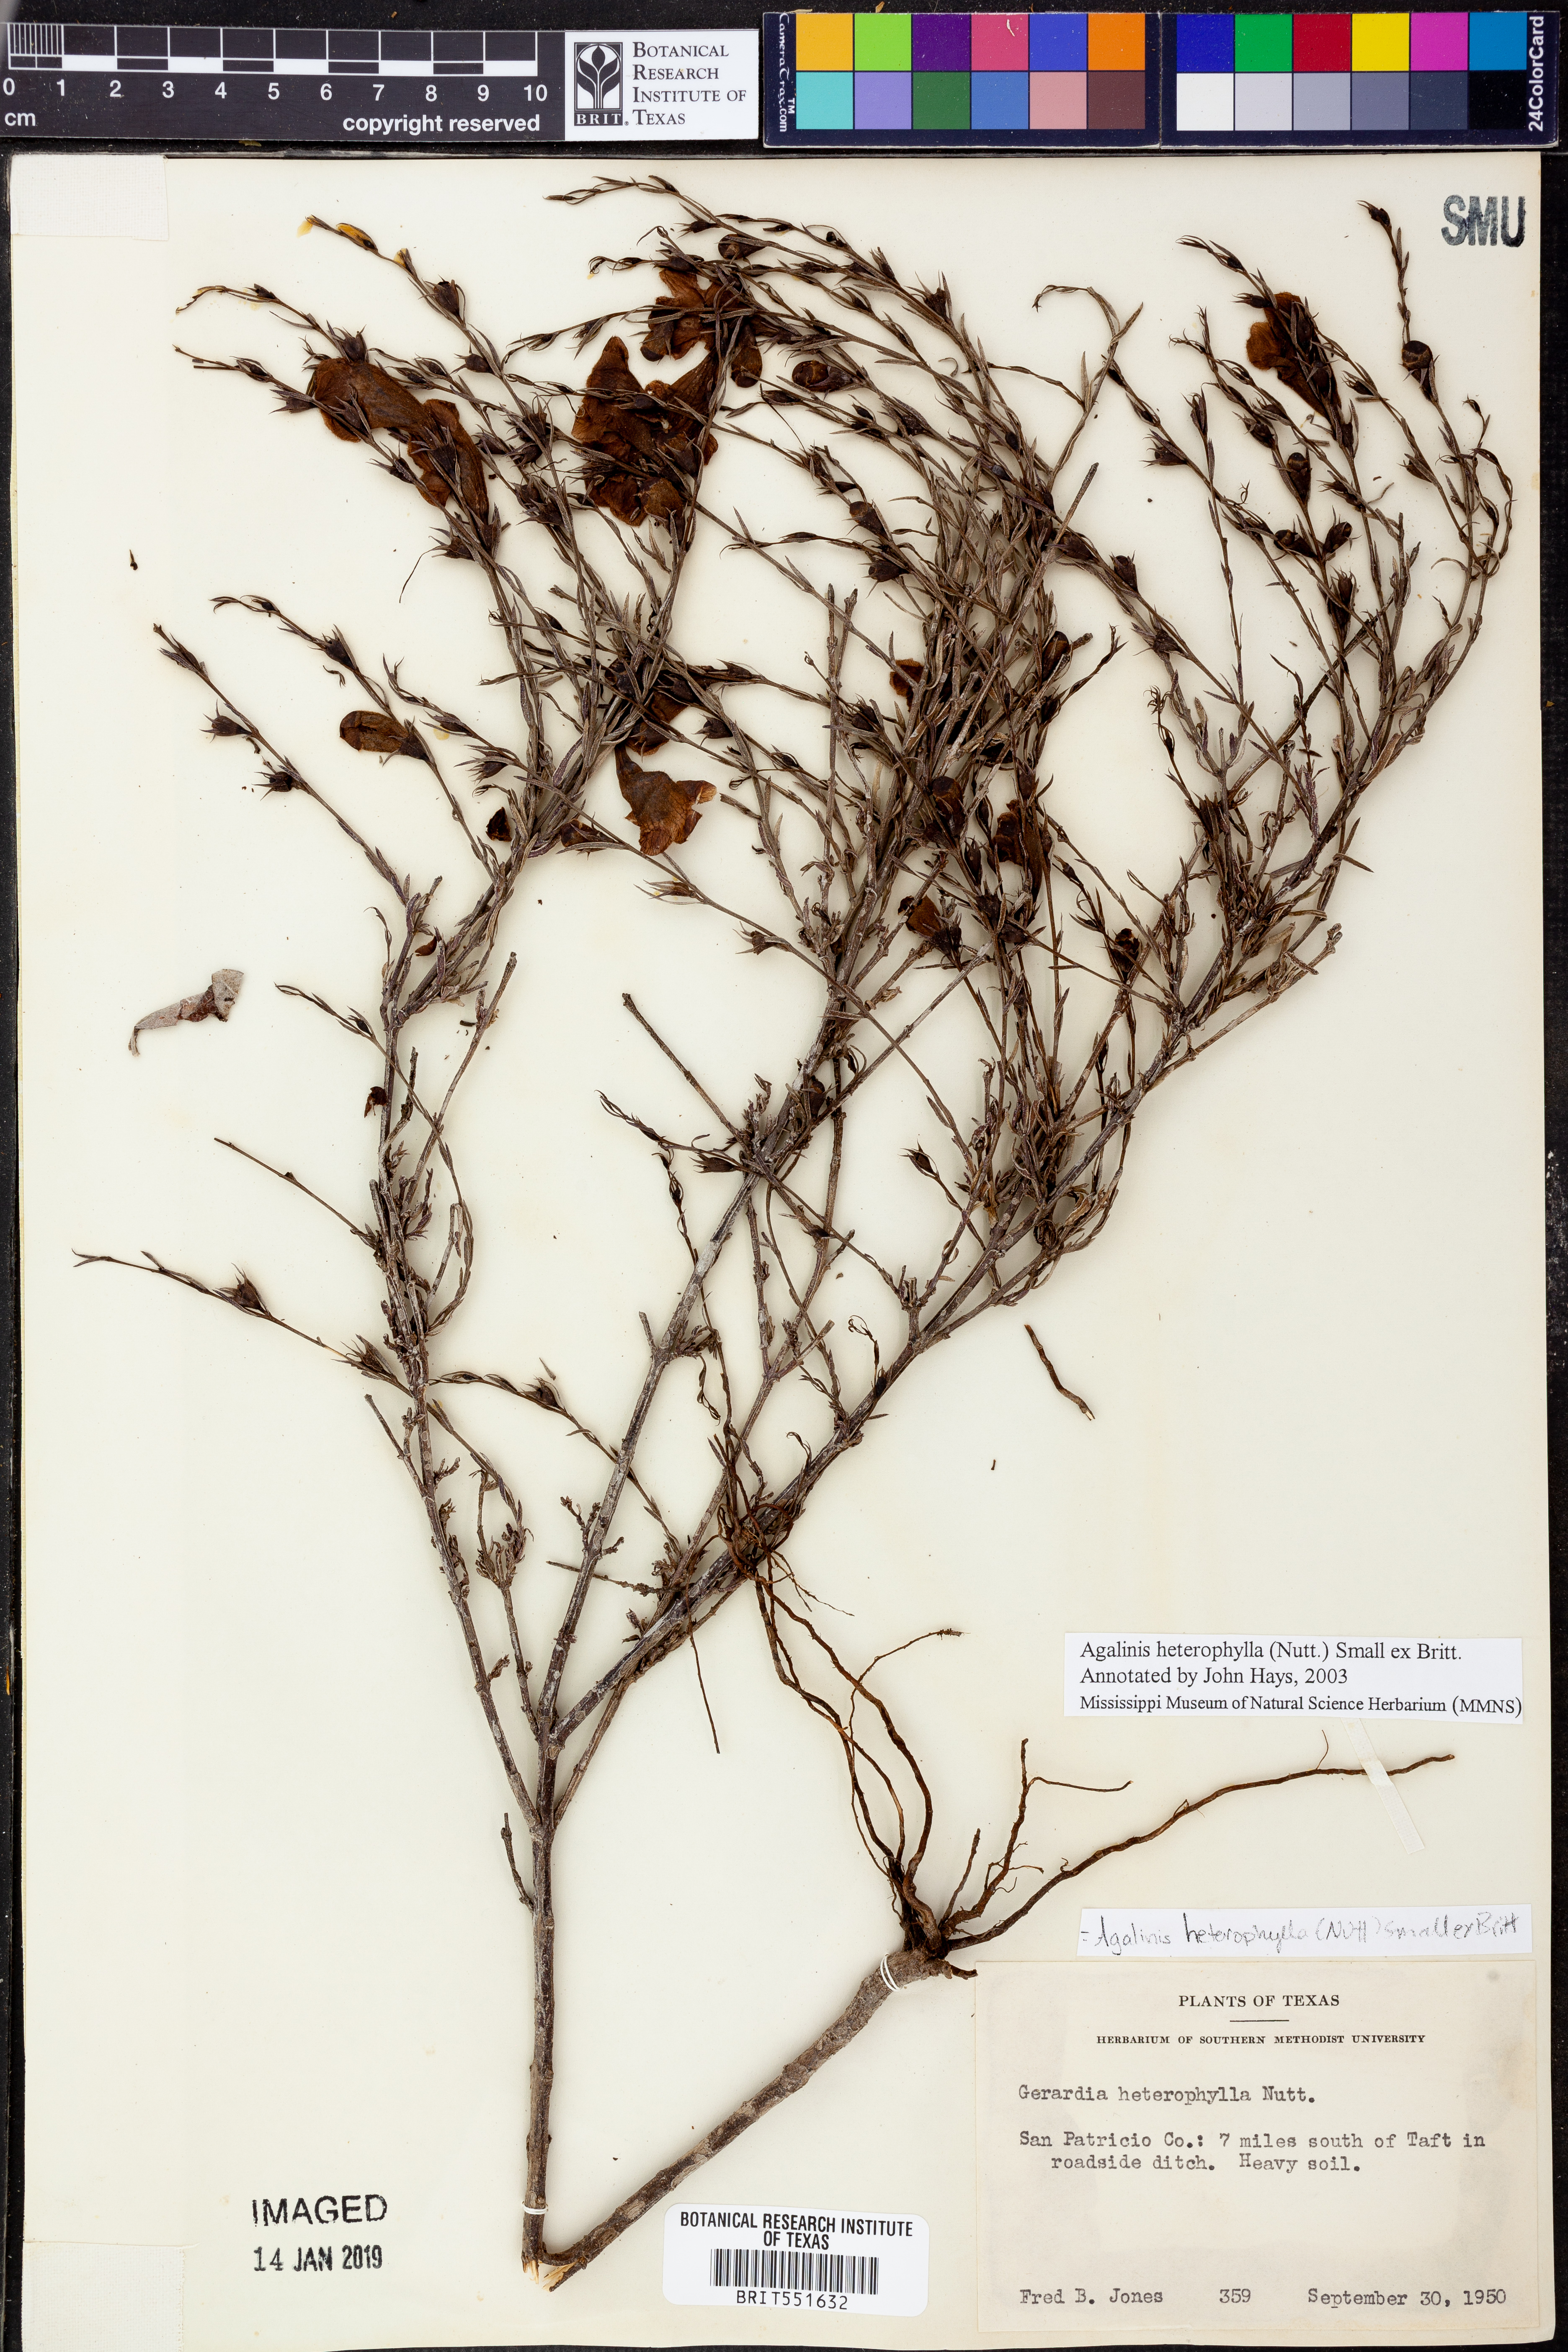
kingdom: Plantae
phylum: Tracheophyta
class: Magnoliopsida
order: Lamiales
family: Orobanchaceae
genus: Agalinis
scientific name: Agalinis heterophylla
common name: Prairie agalinis
